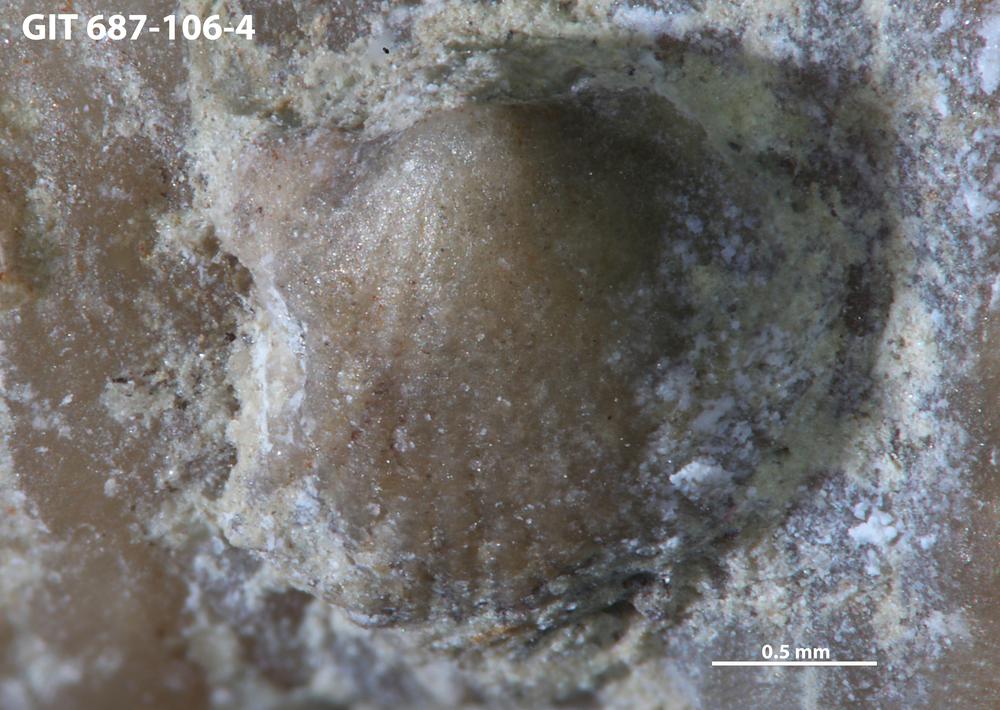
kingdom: Animalia
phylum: Mollusca
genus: Anticalyptraea
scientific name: Anticalyptraea westergaardi
